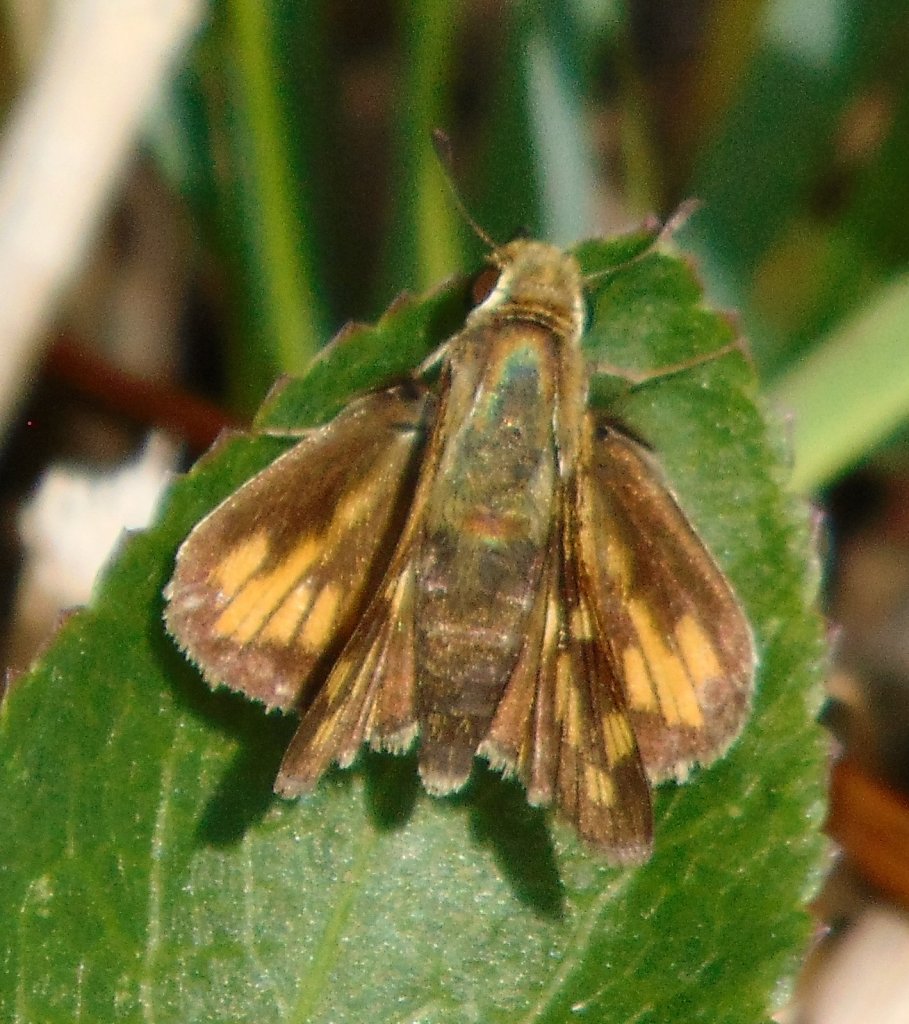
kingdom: Animalia
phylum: Arthropoda
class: Insecta
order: Lepidoptera
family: Hesperiidae
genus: Polites
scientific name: Polites coras
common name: Peck's Skipper
